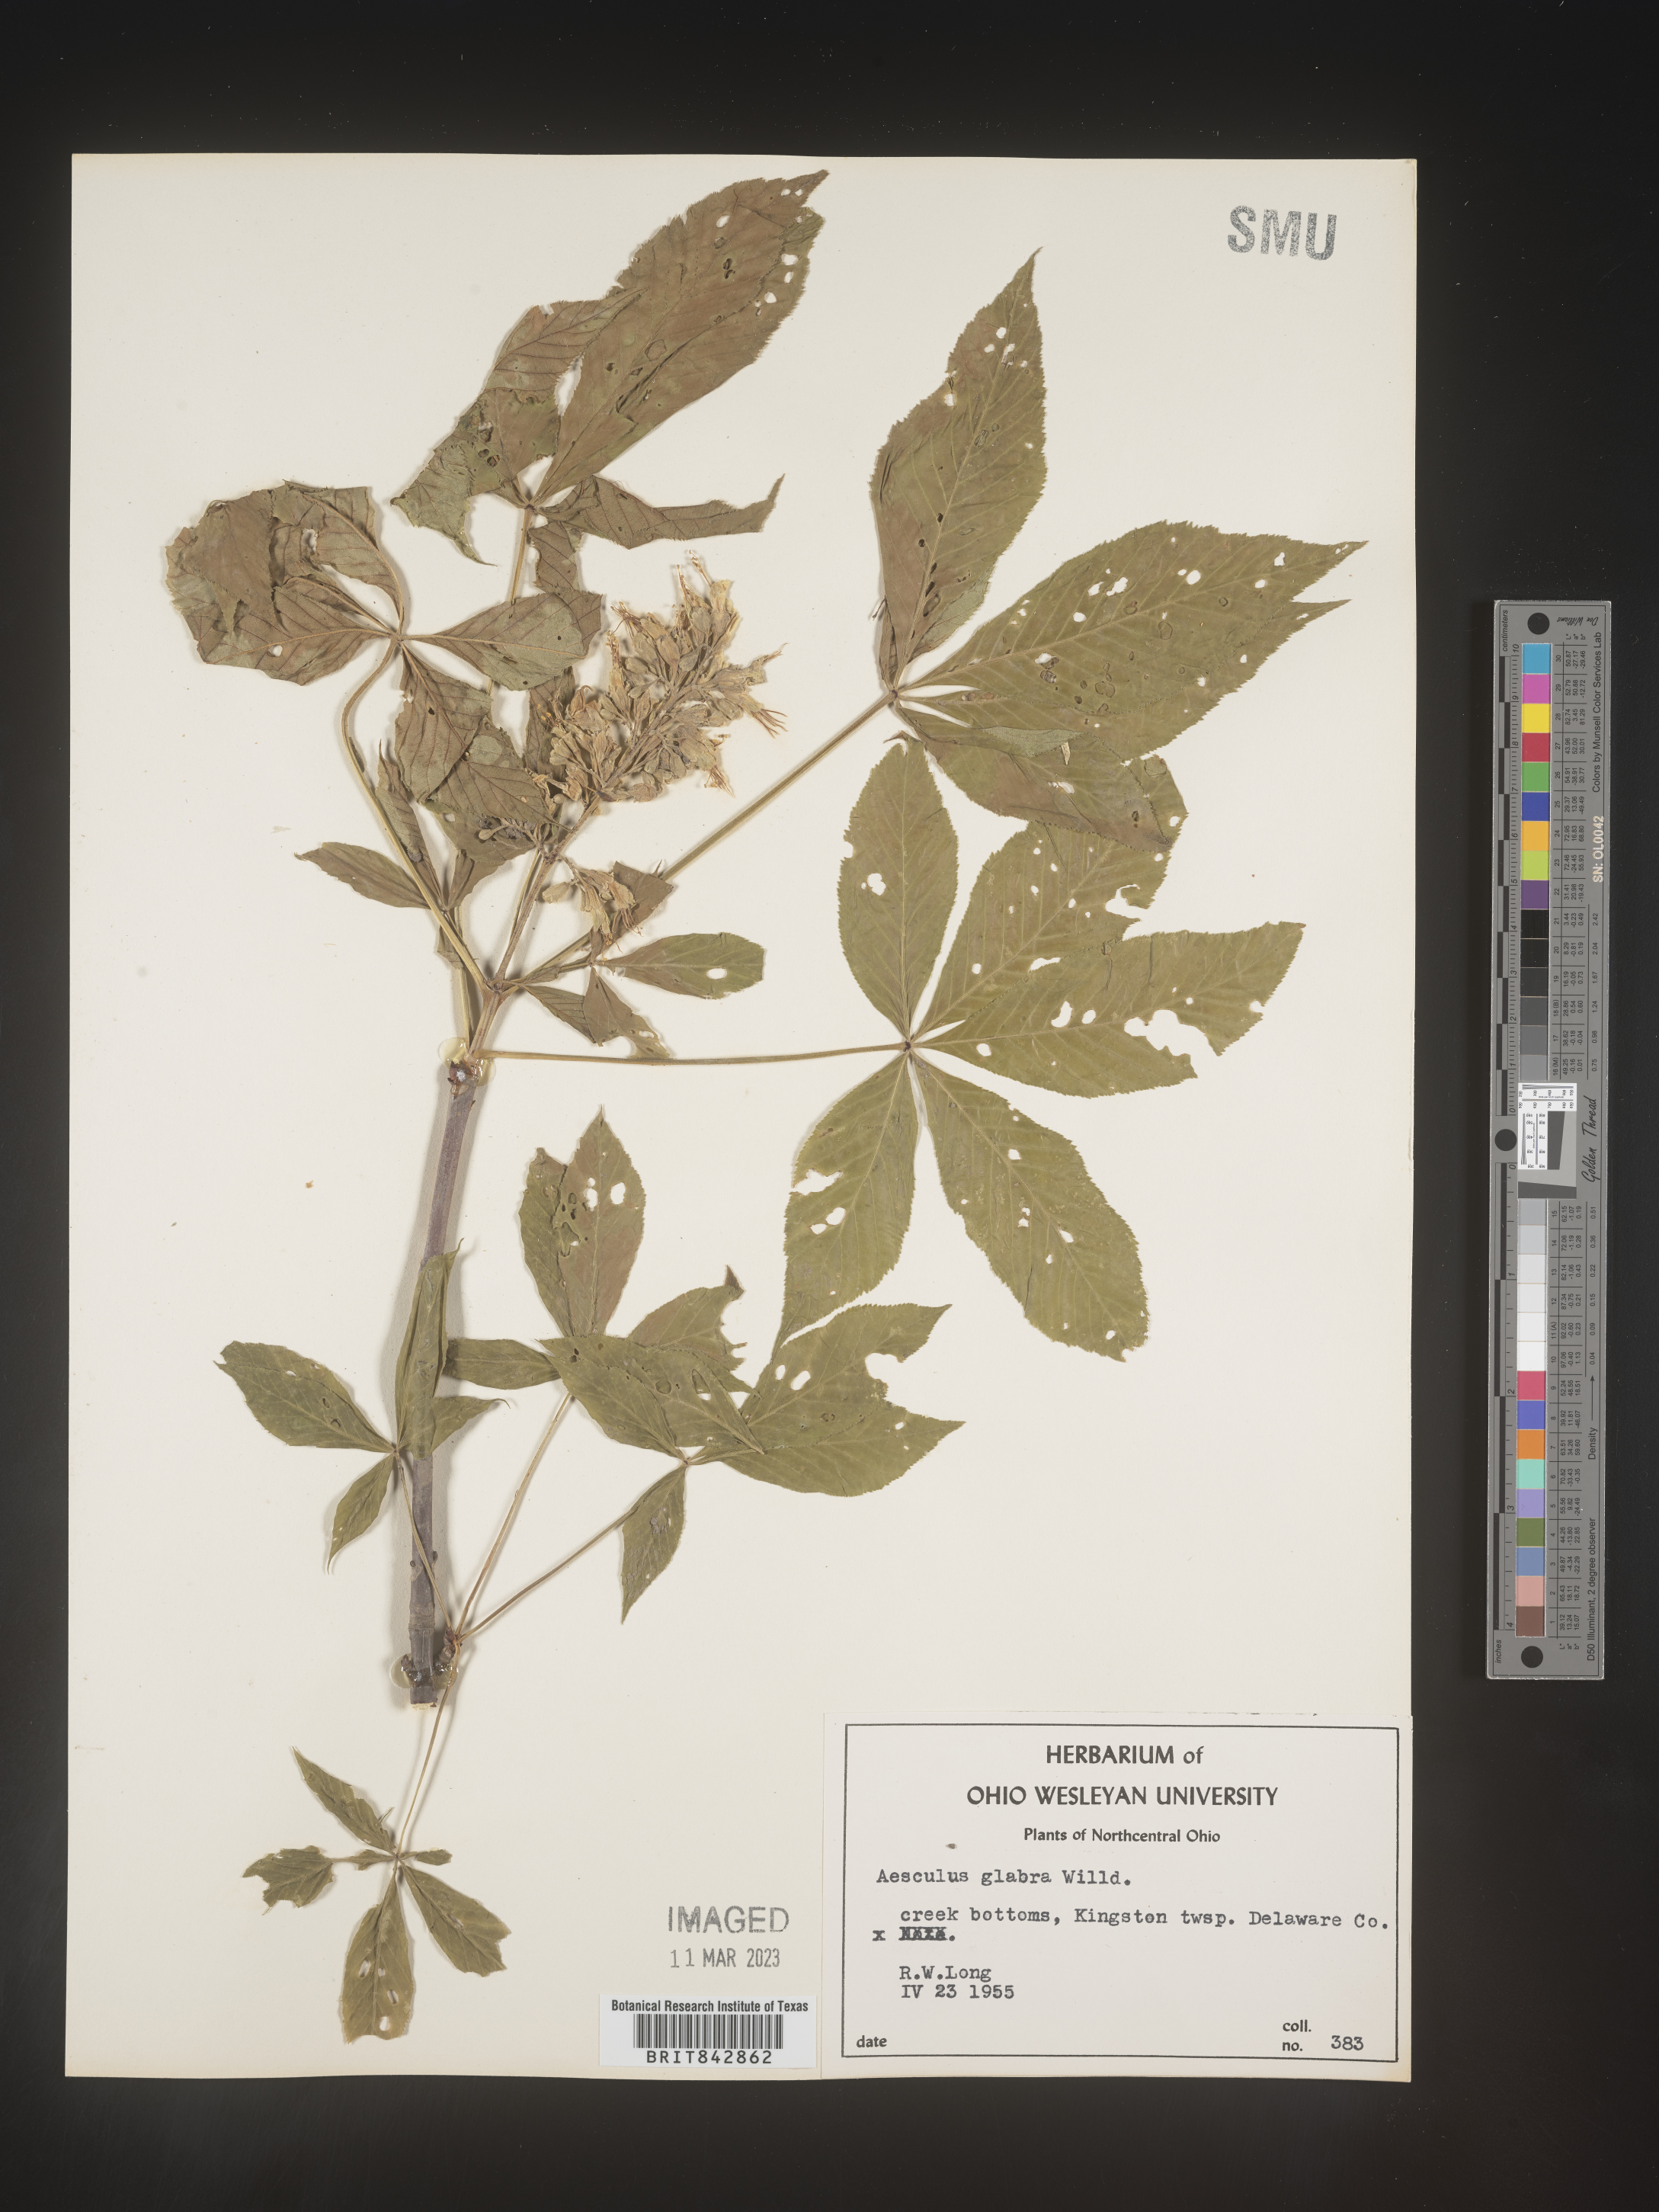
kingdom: Plantae
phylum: Tracheophyta
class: Magnoliopsida
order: Sapindales
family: Sapindaceae
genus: Aesculus
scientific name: Aesculus glabra
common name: Ohio buckeye
